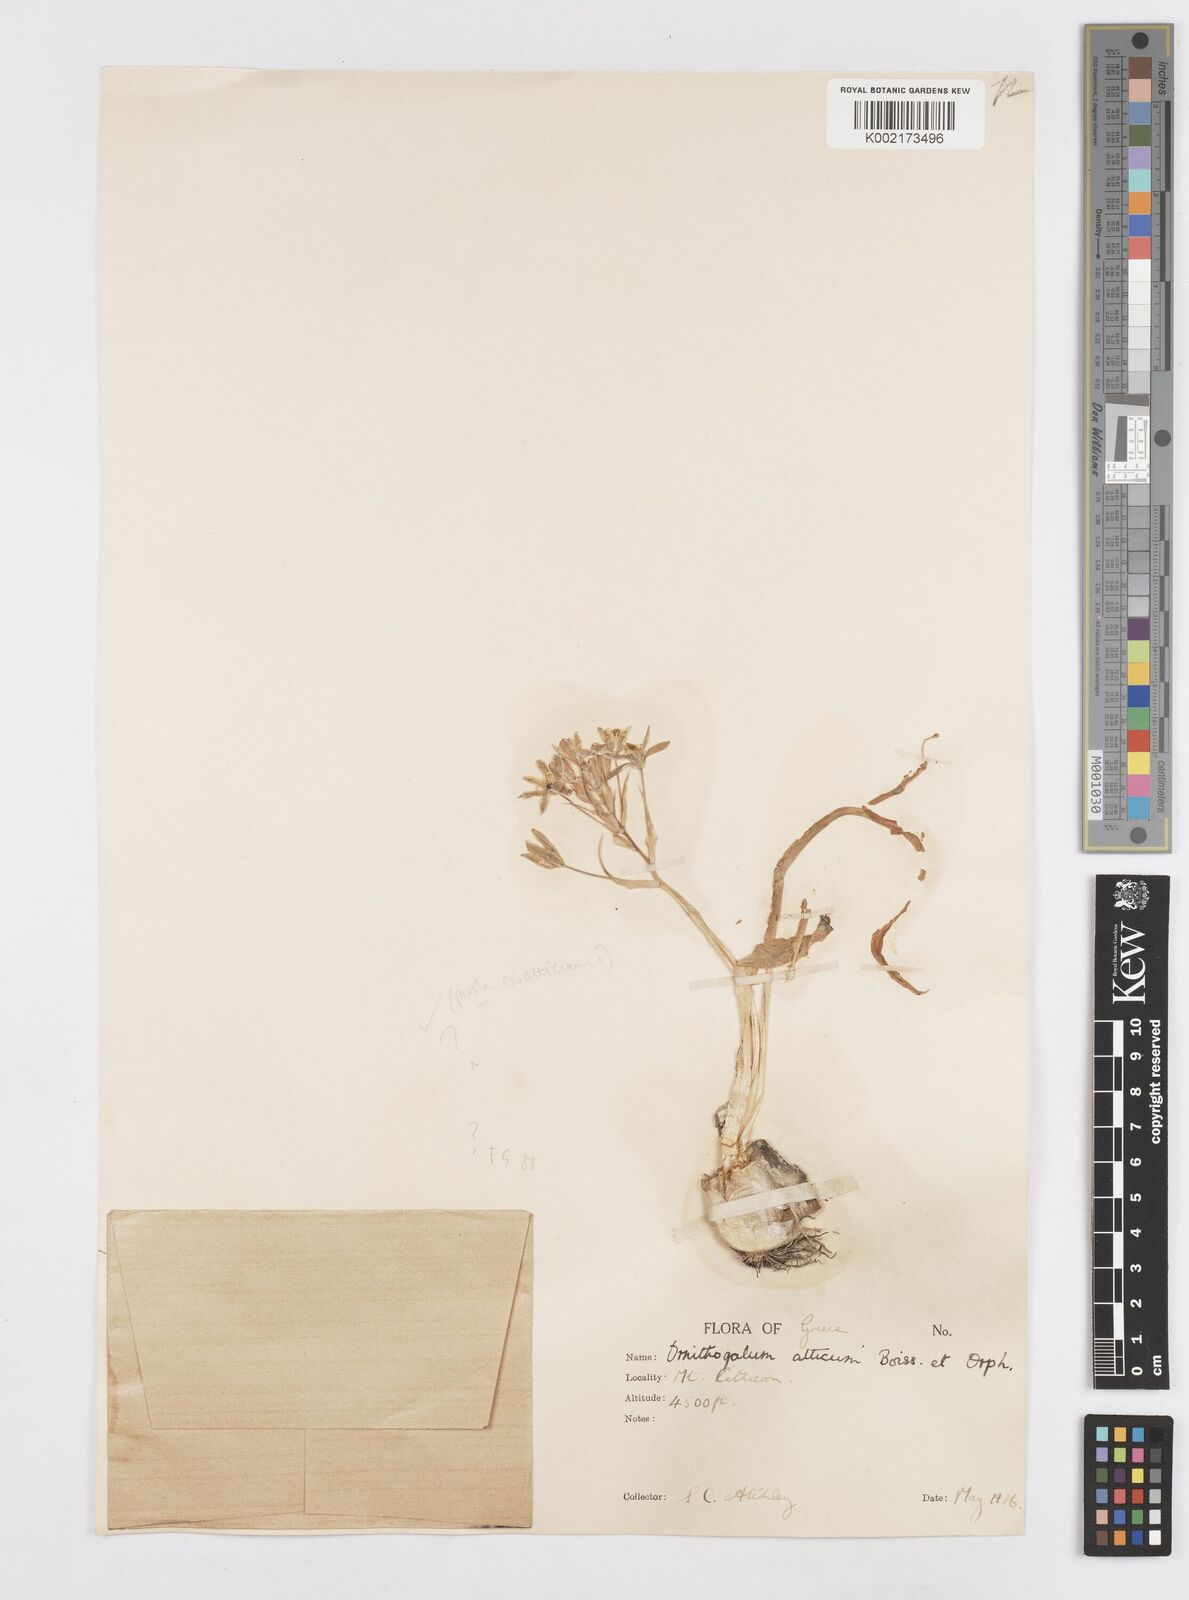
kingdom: Plantae
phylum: Tracheophyta
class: Liliopsida
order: Asparagales
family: Asparagaceae
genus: Ornithogalum
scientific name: Ornithogalum montanum
